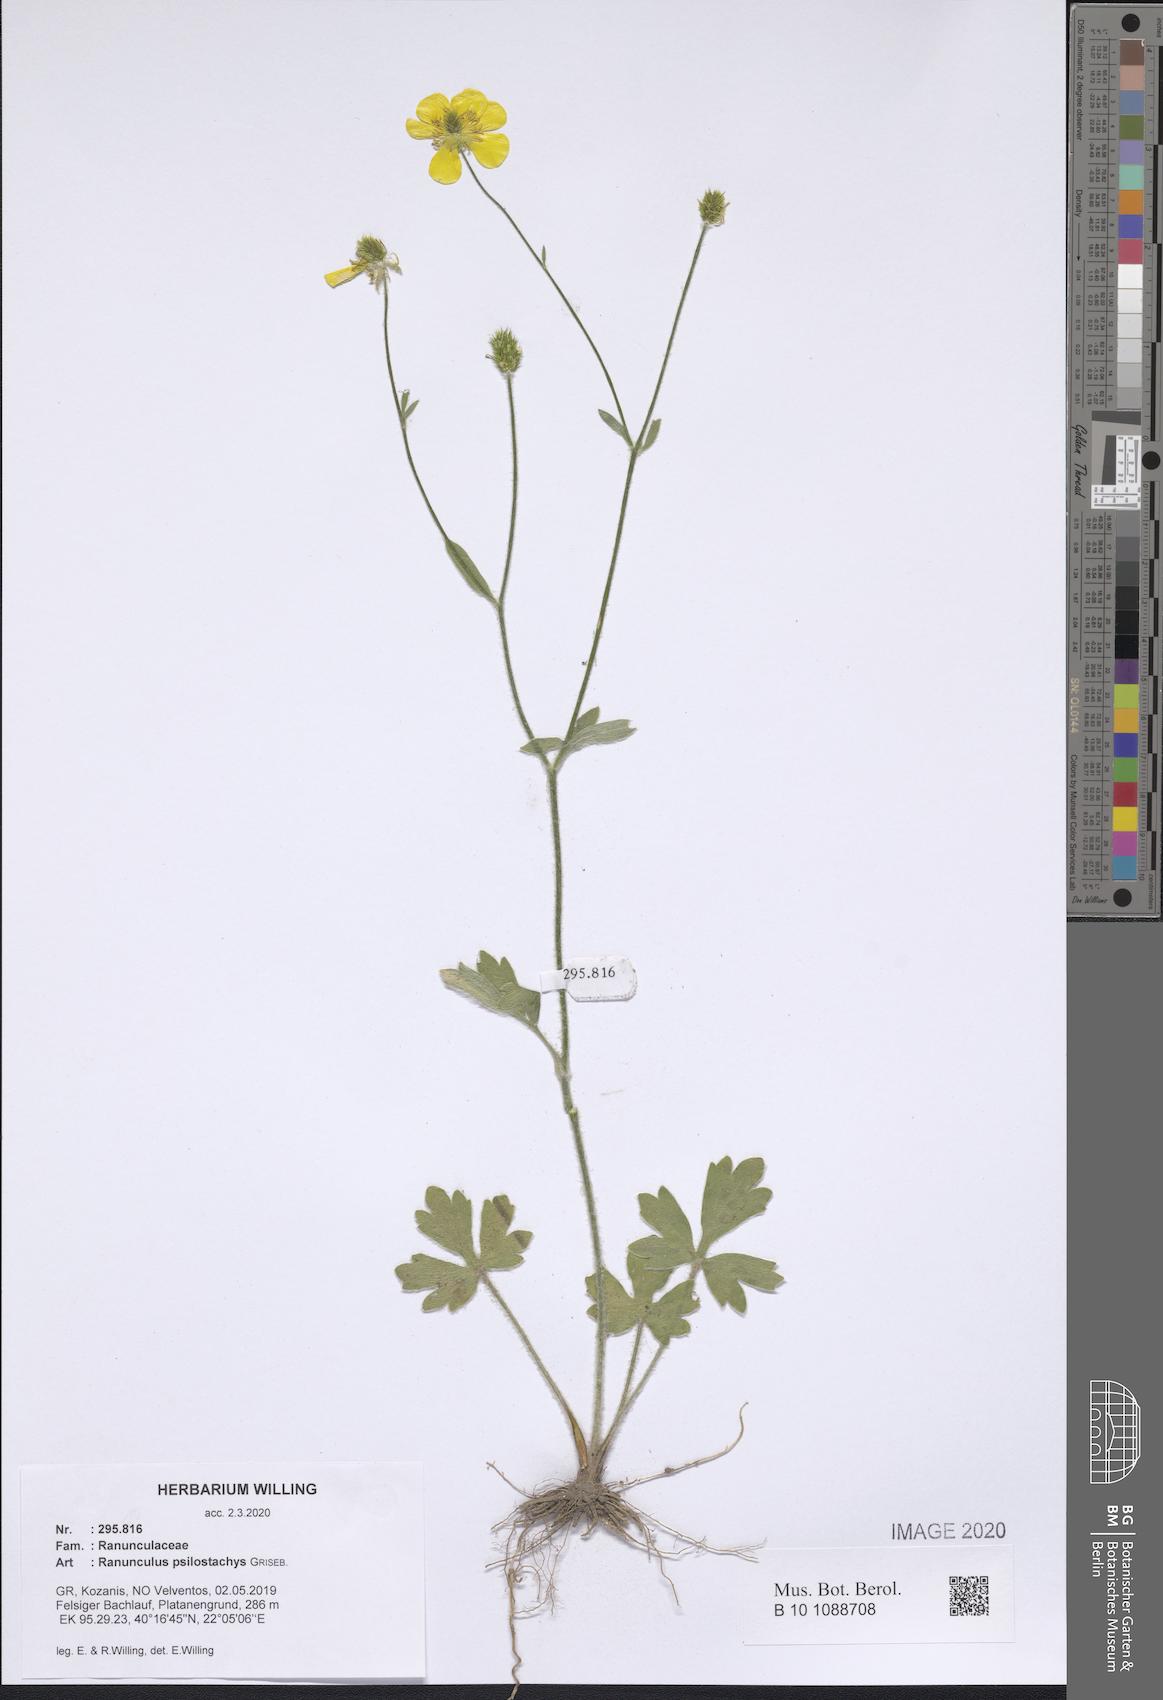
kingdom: Plantae
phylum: Tracheophyta
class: Magnoliopsida
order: Ranunculales
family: Ranunculaceae
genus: Ranunculus
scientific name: Ranunculus psilostachys
